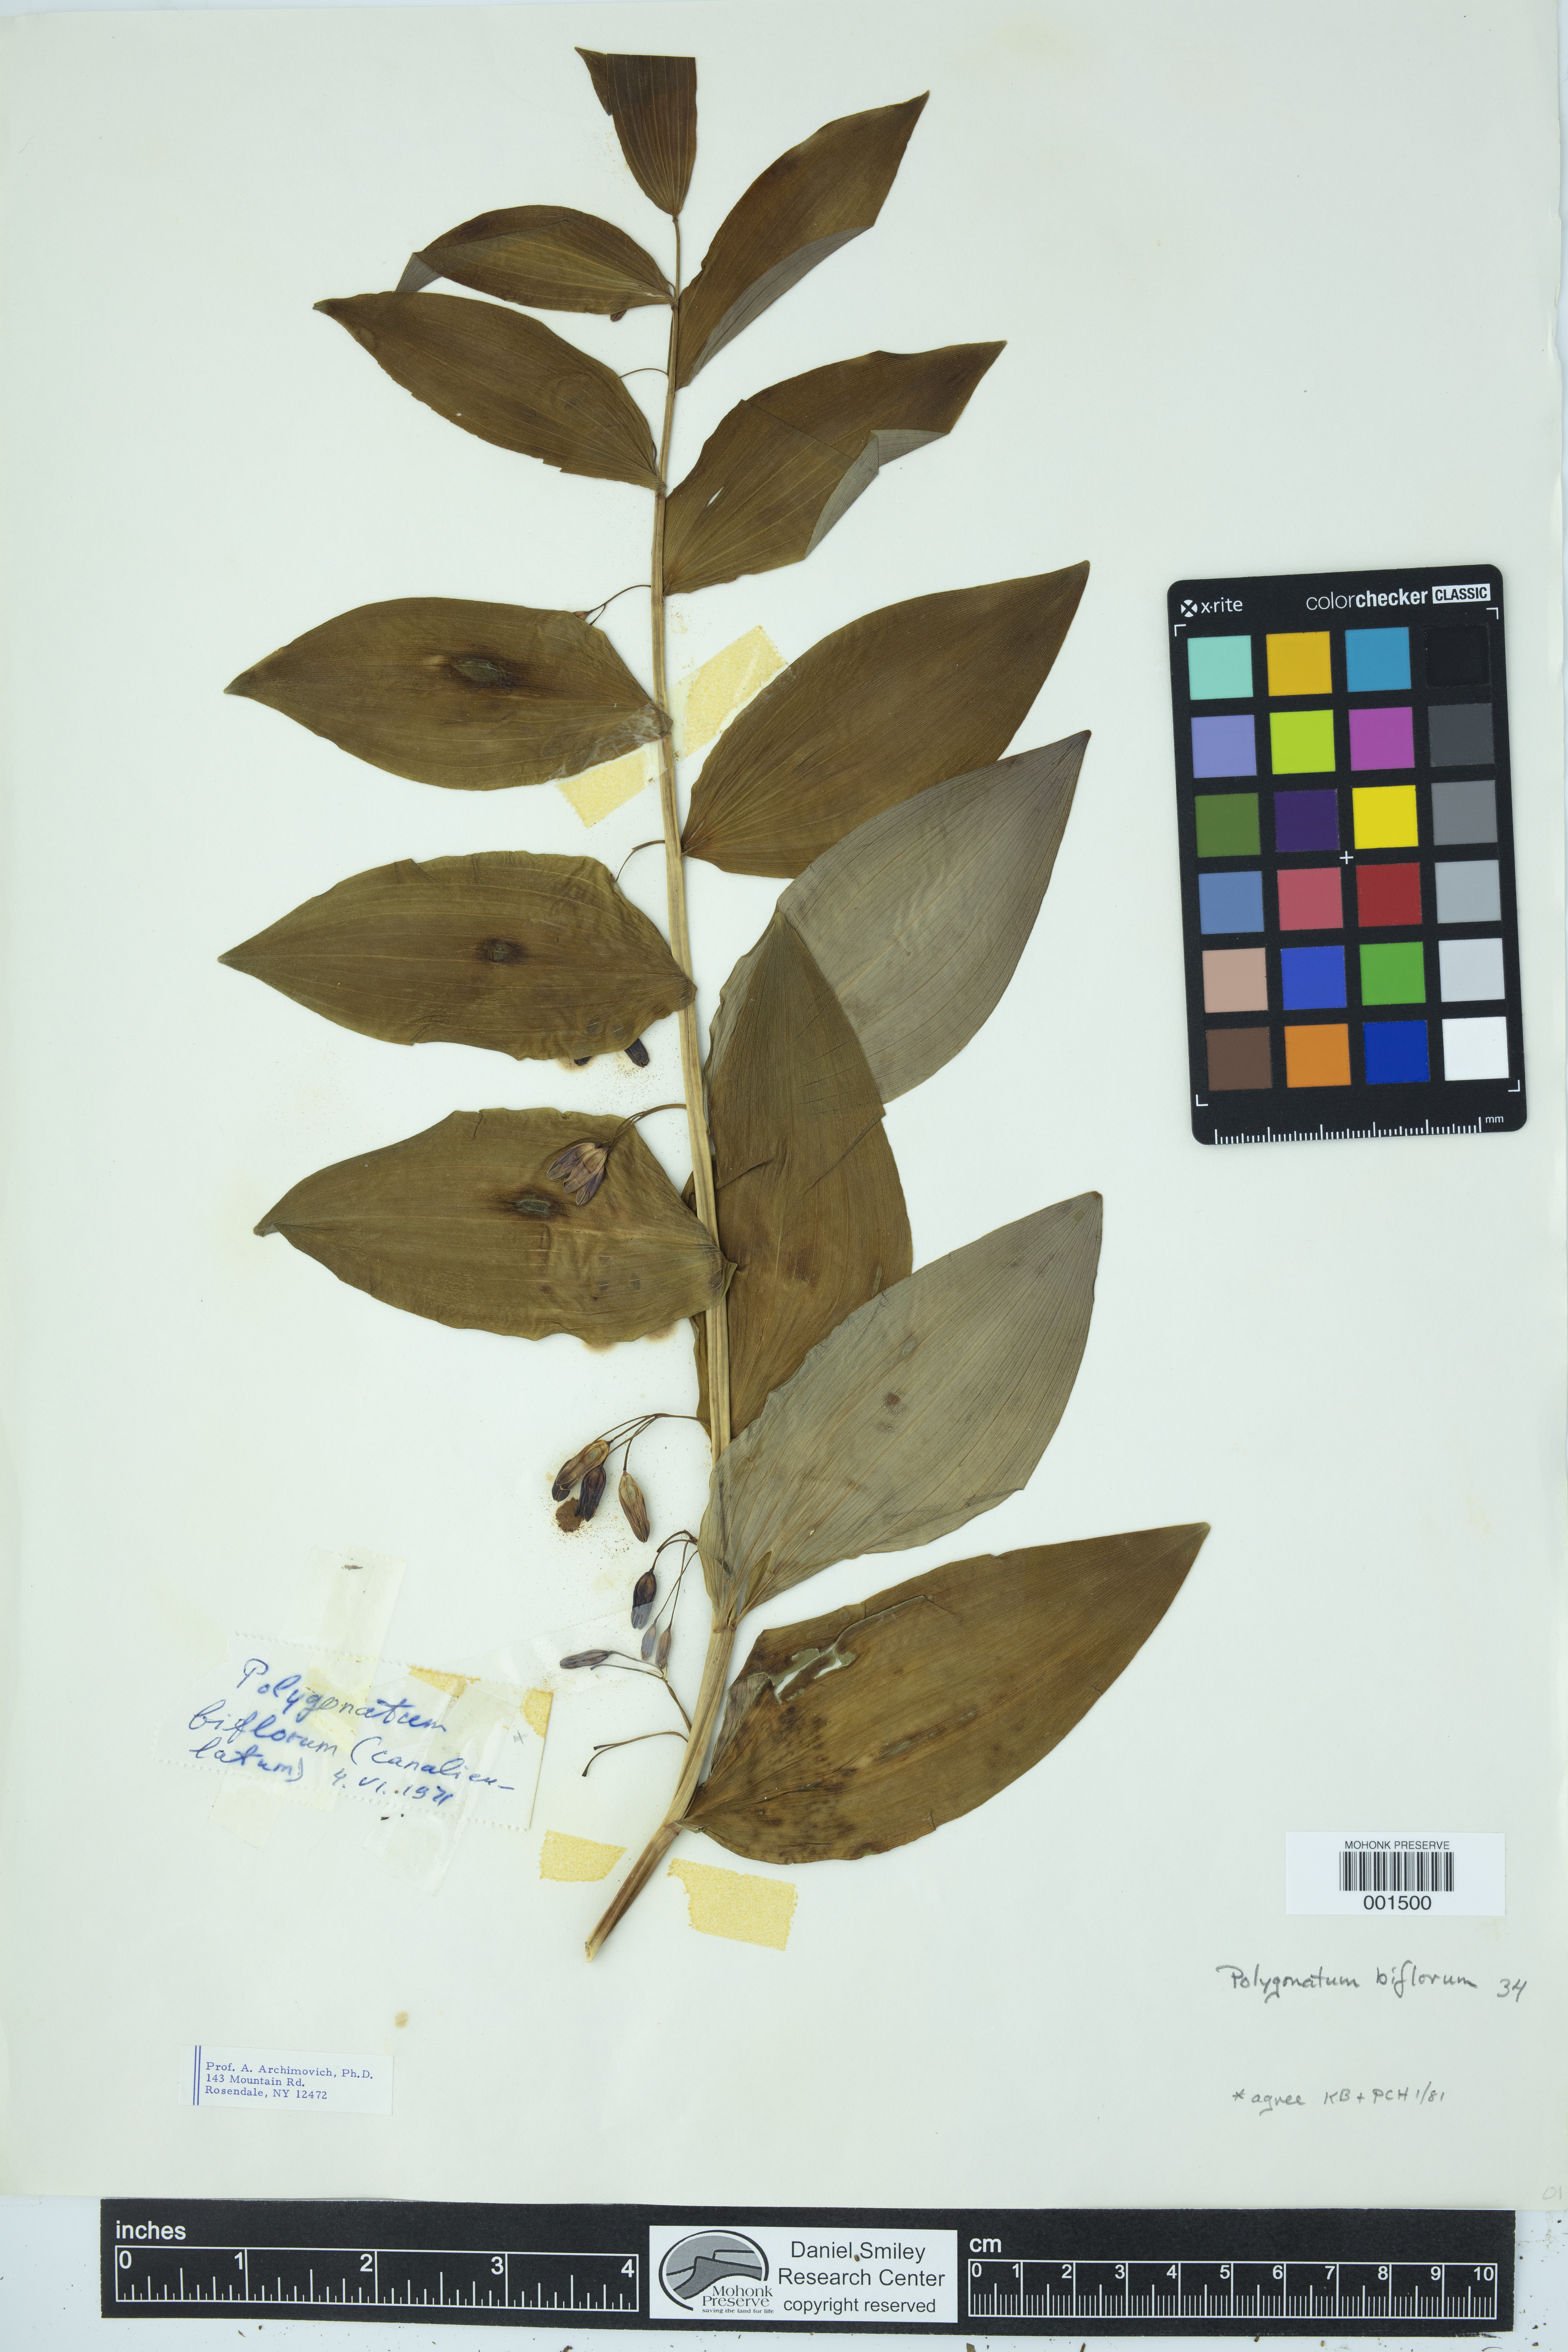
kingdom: Plantae
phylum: Tracheophyta
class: Liliopsida
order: Asparagales
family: Asparagaceae
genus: Polygonatum
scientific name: Polygonatum biflorum
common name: American solomon's-seal
